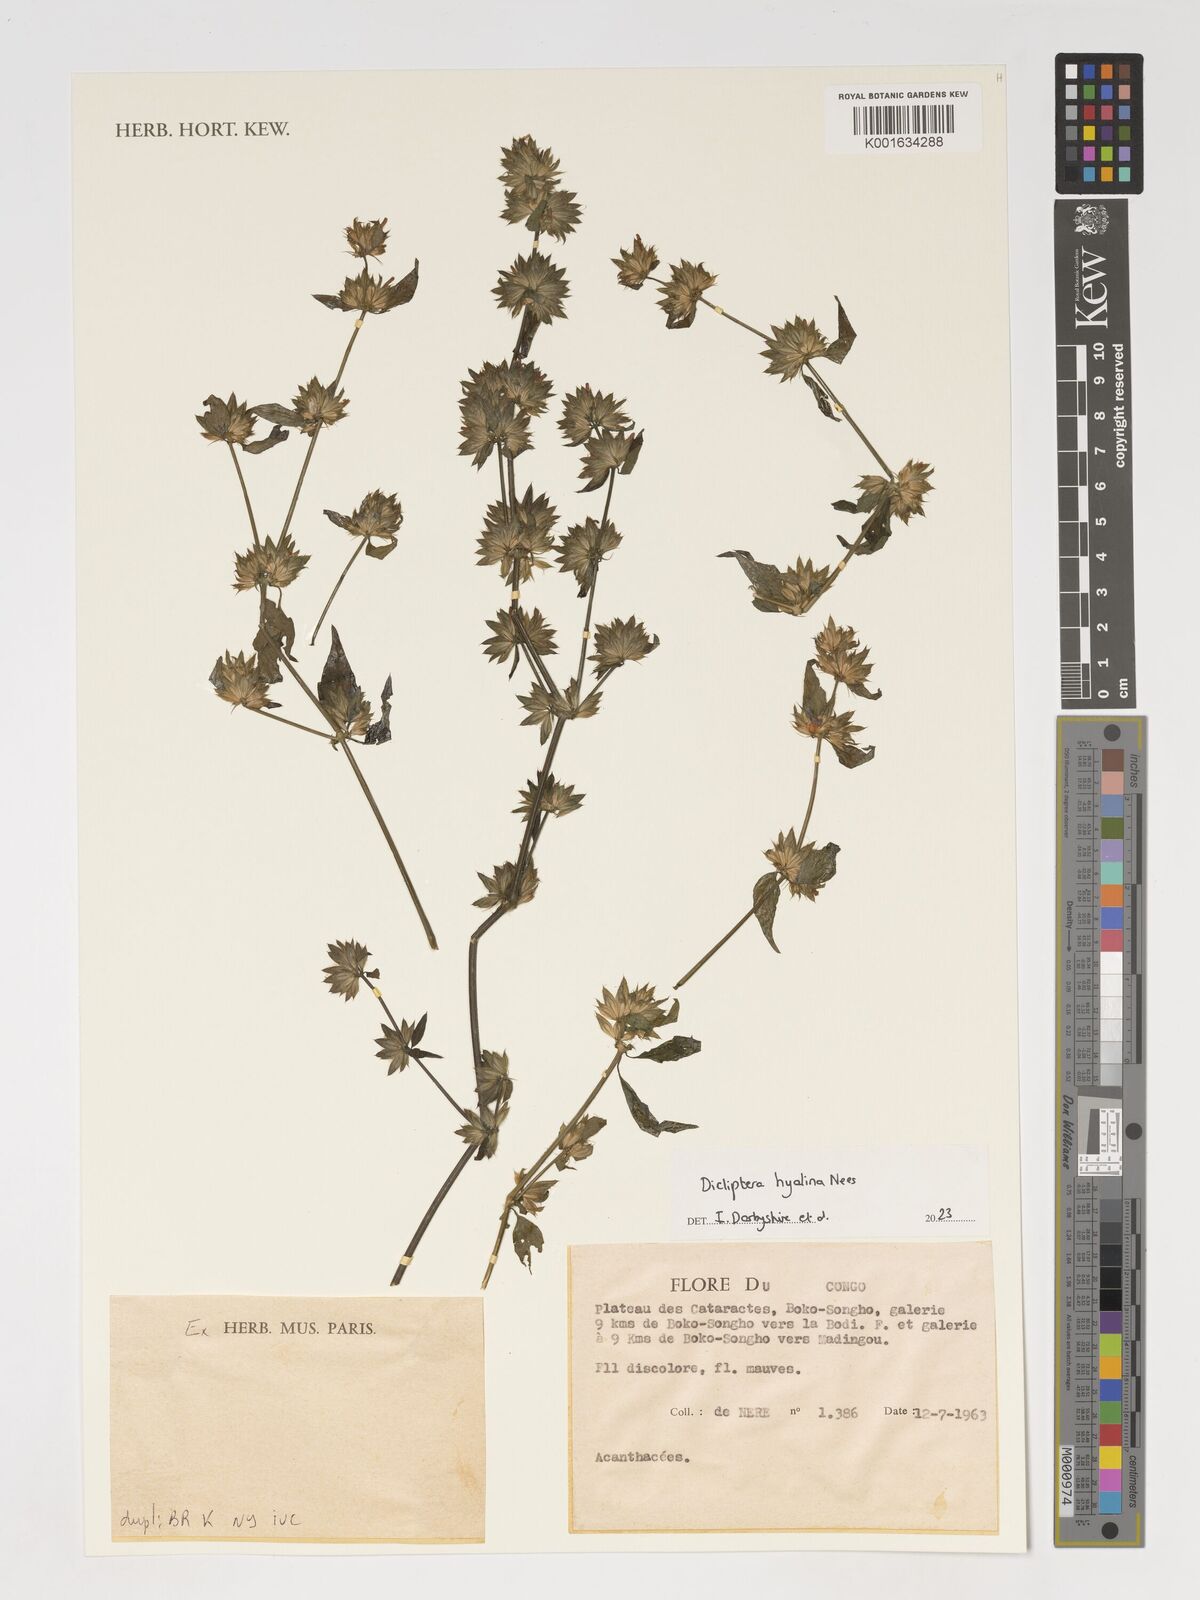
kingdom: Plantae
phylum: Tracheophyta
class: Magnoliopsida
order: Lamiales
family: Acanthaceae
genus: Dicliptera
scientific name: Dicliptera hyalina
